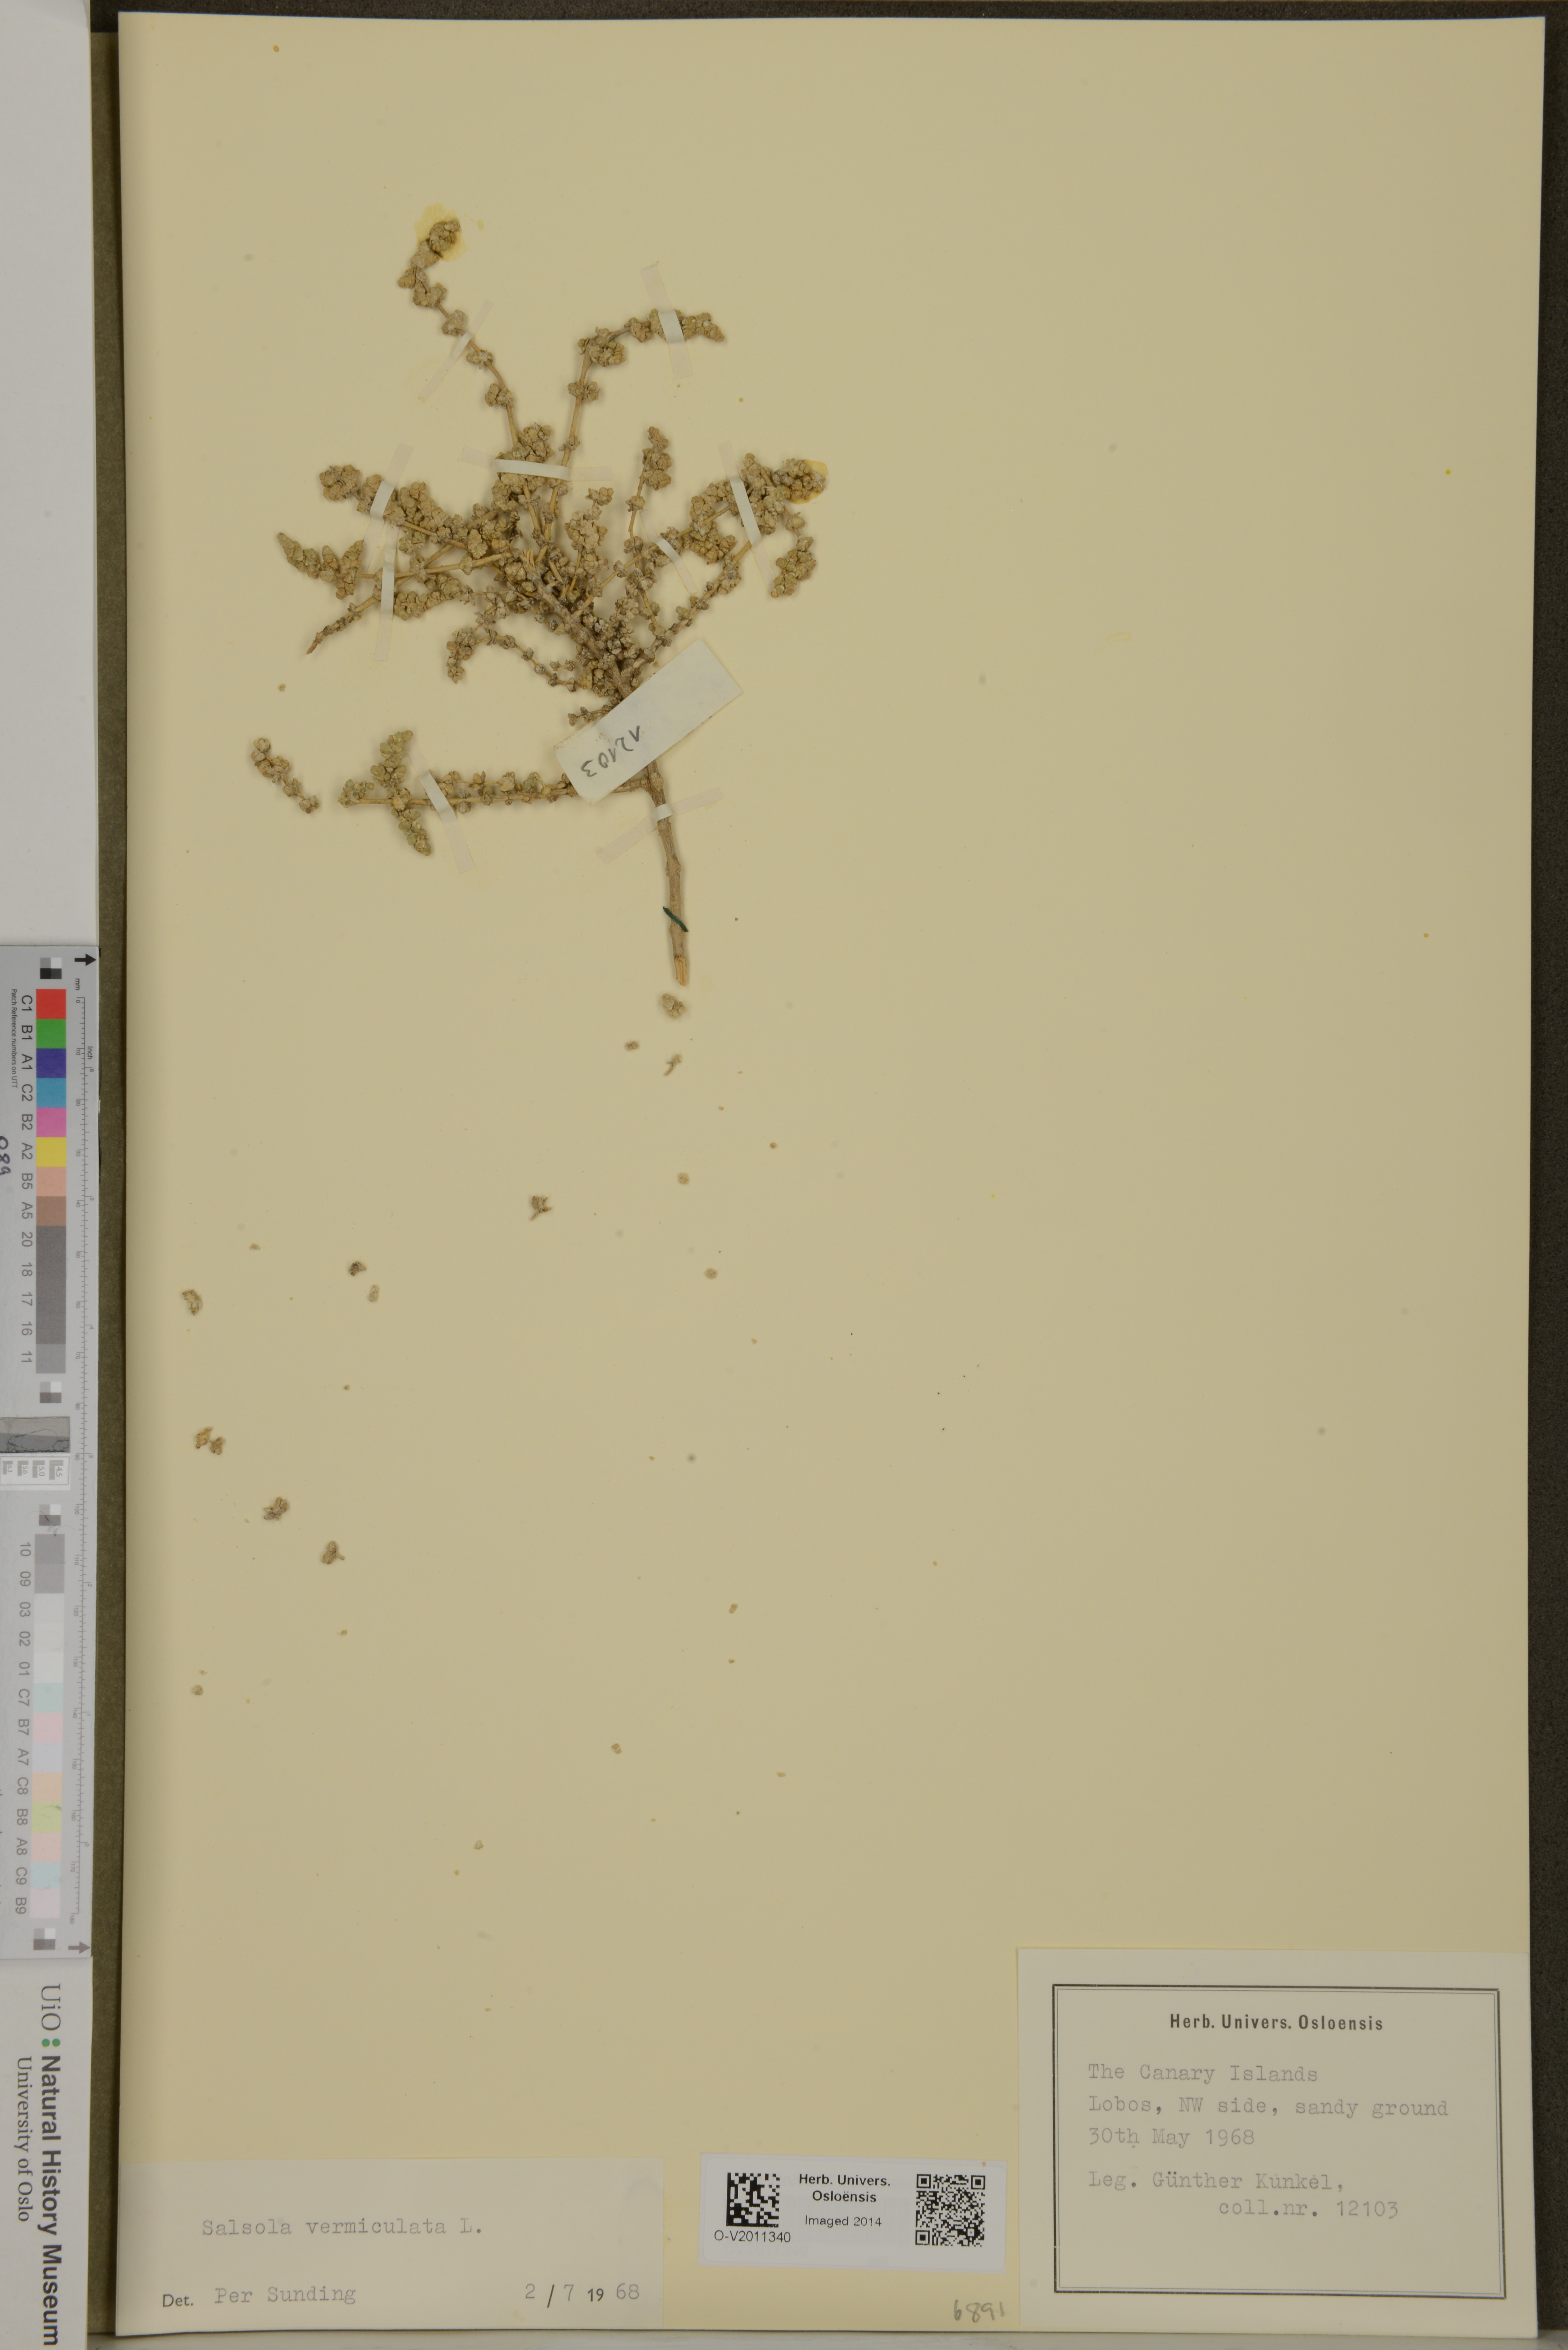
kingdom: Plantae
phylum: Tracheophyta
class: Magnoliopsida
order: Caryophyllales
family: Amaranthaceae
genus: Nitrosalsola
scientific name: Nitrosalsola vermiculata
